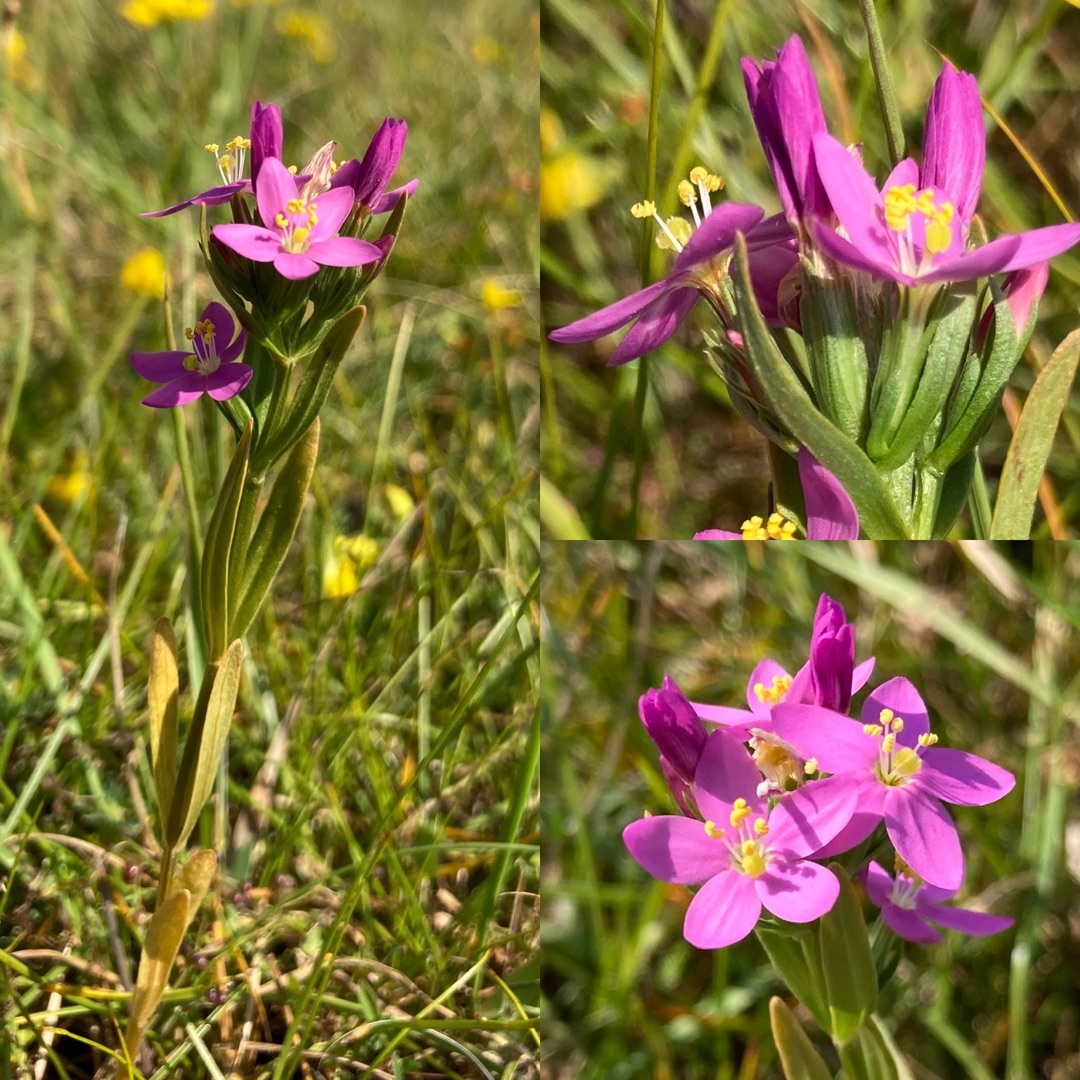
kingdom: Plantae
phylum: Tracheophyta
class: Magnoliopsida
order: Gentianales
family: Gentianaceae
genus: Centaurium
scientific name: Centaurium littorale
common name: Strand-tusindgylden
